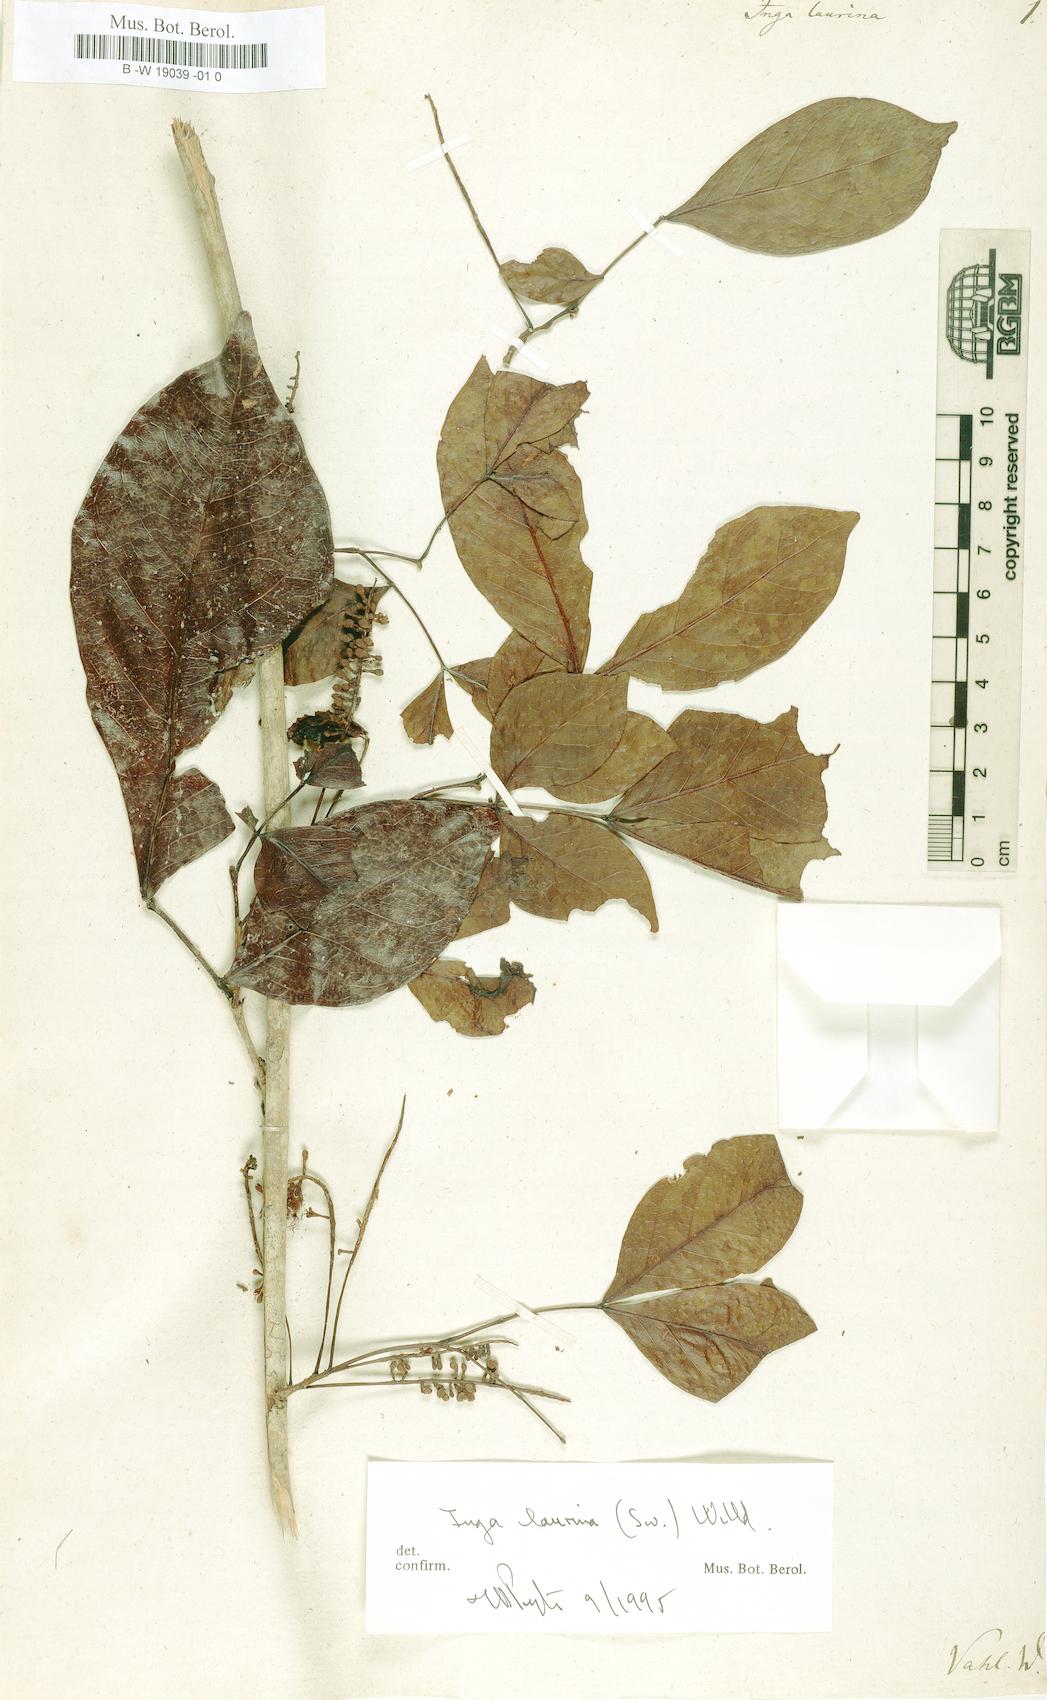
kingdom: Plantae
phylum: Tracheophyta
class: Magnoliopsida
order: Fabales
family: Fabaceae
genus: Inga
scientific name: Inga laurina
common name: Red wood
